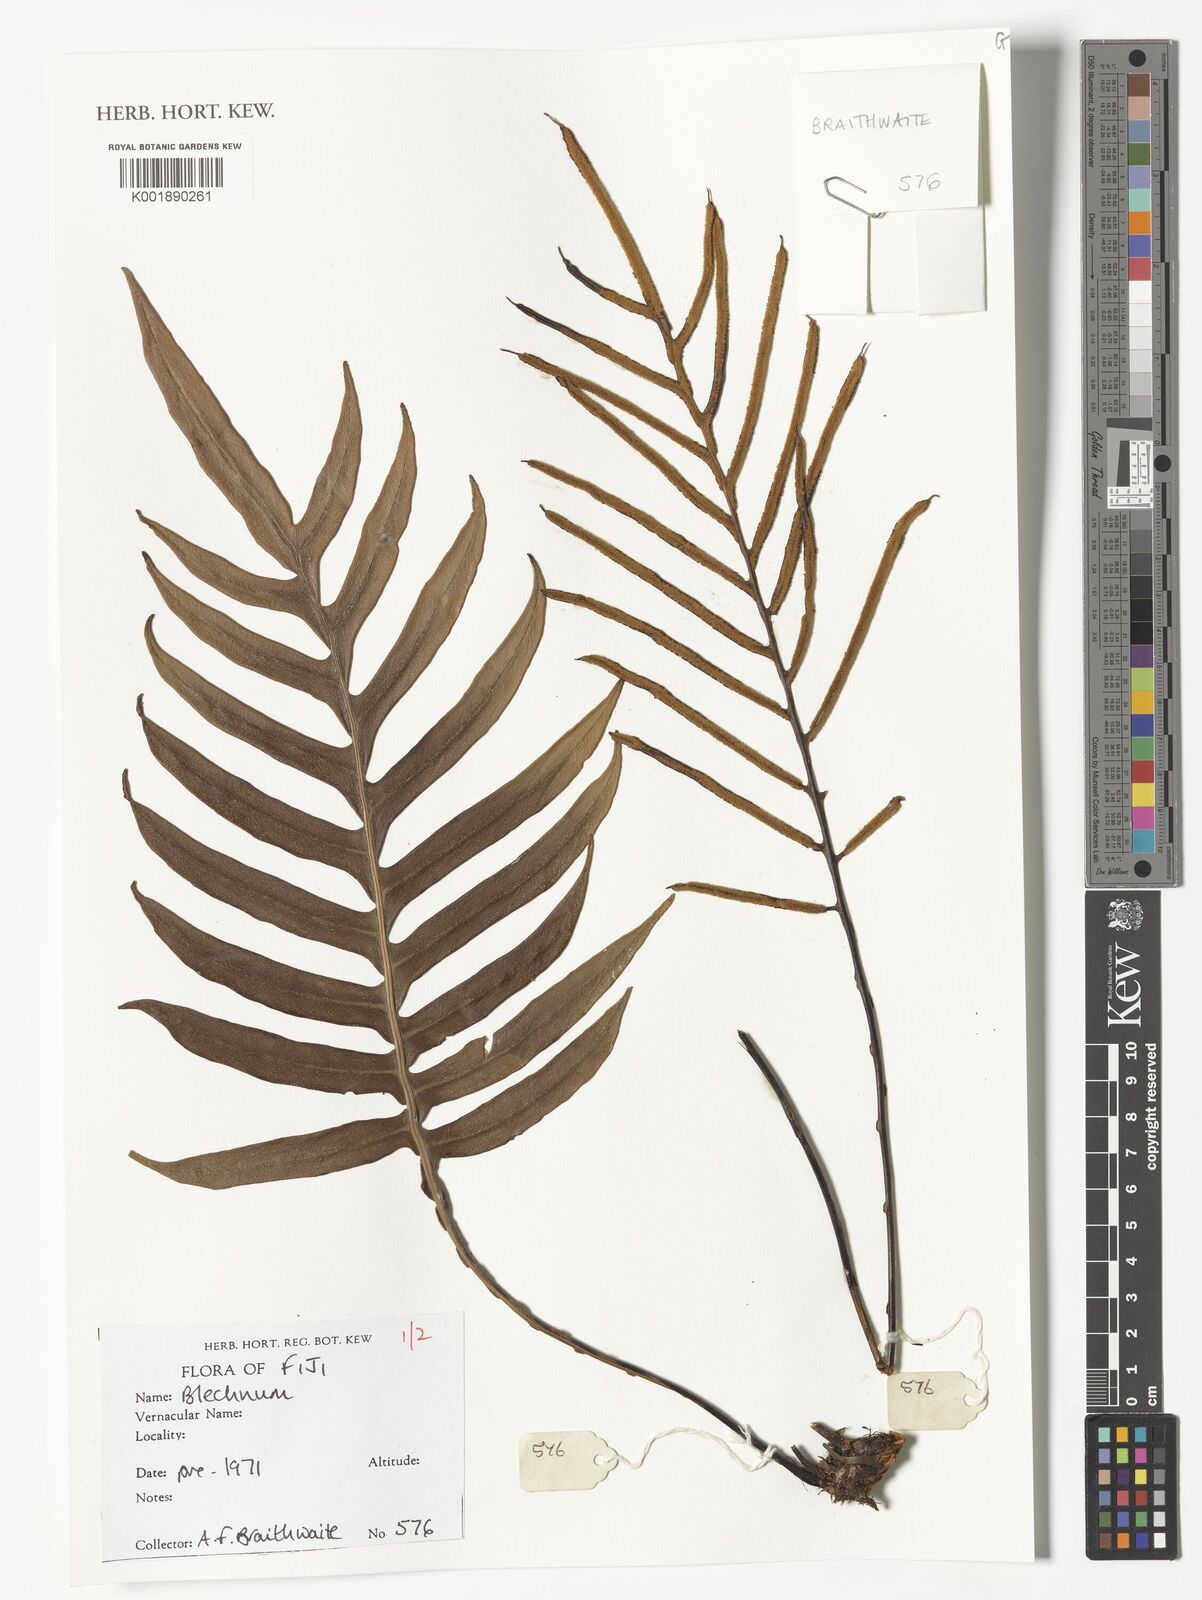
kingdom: Plantae
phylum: Tracheophyta
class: Polypodiopsida
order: Polypodiales
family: Blechnaceae
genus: Blechnum
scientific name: Blechnum
